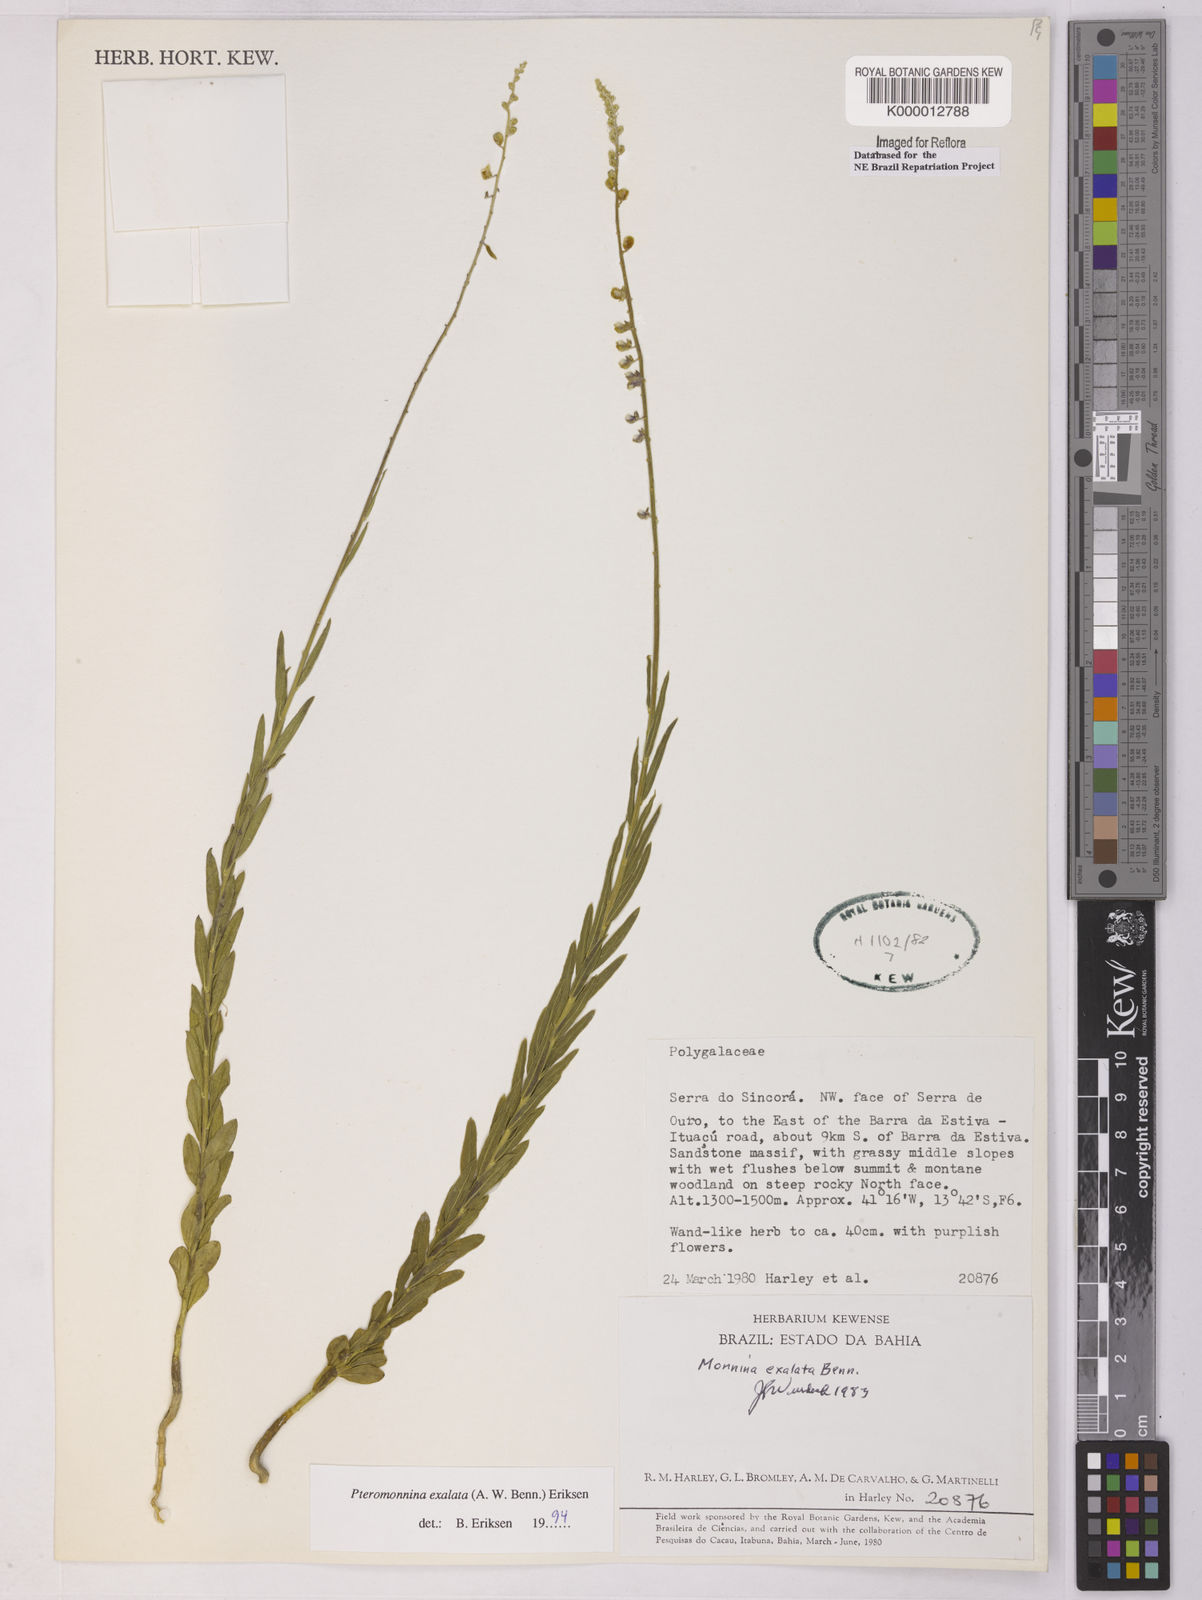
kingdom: Plantae
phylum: Tracheophyta
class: Magnoliopsida
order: Fabales
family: Polygalaceae
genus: Monnina
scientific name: Monnina exalata
